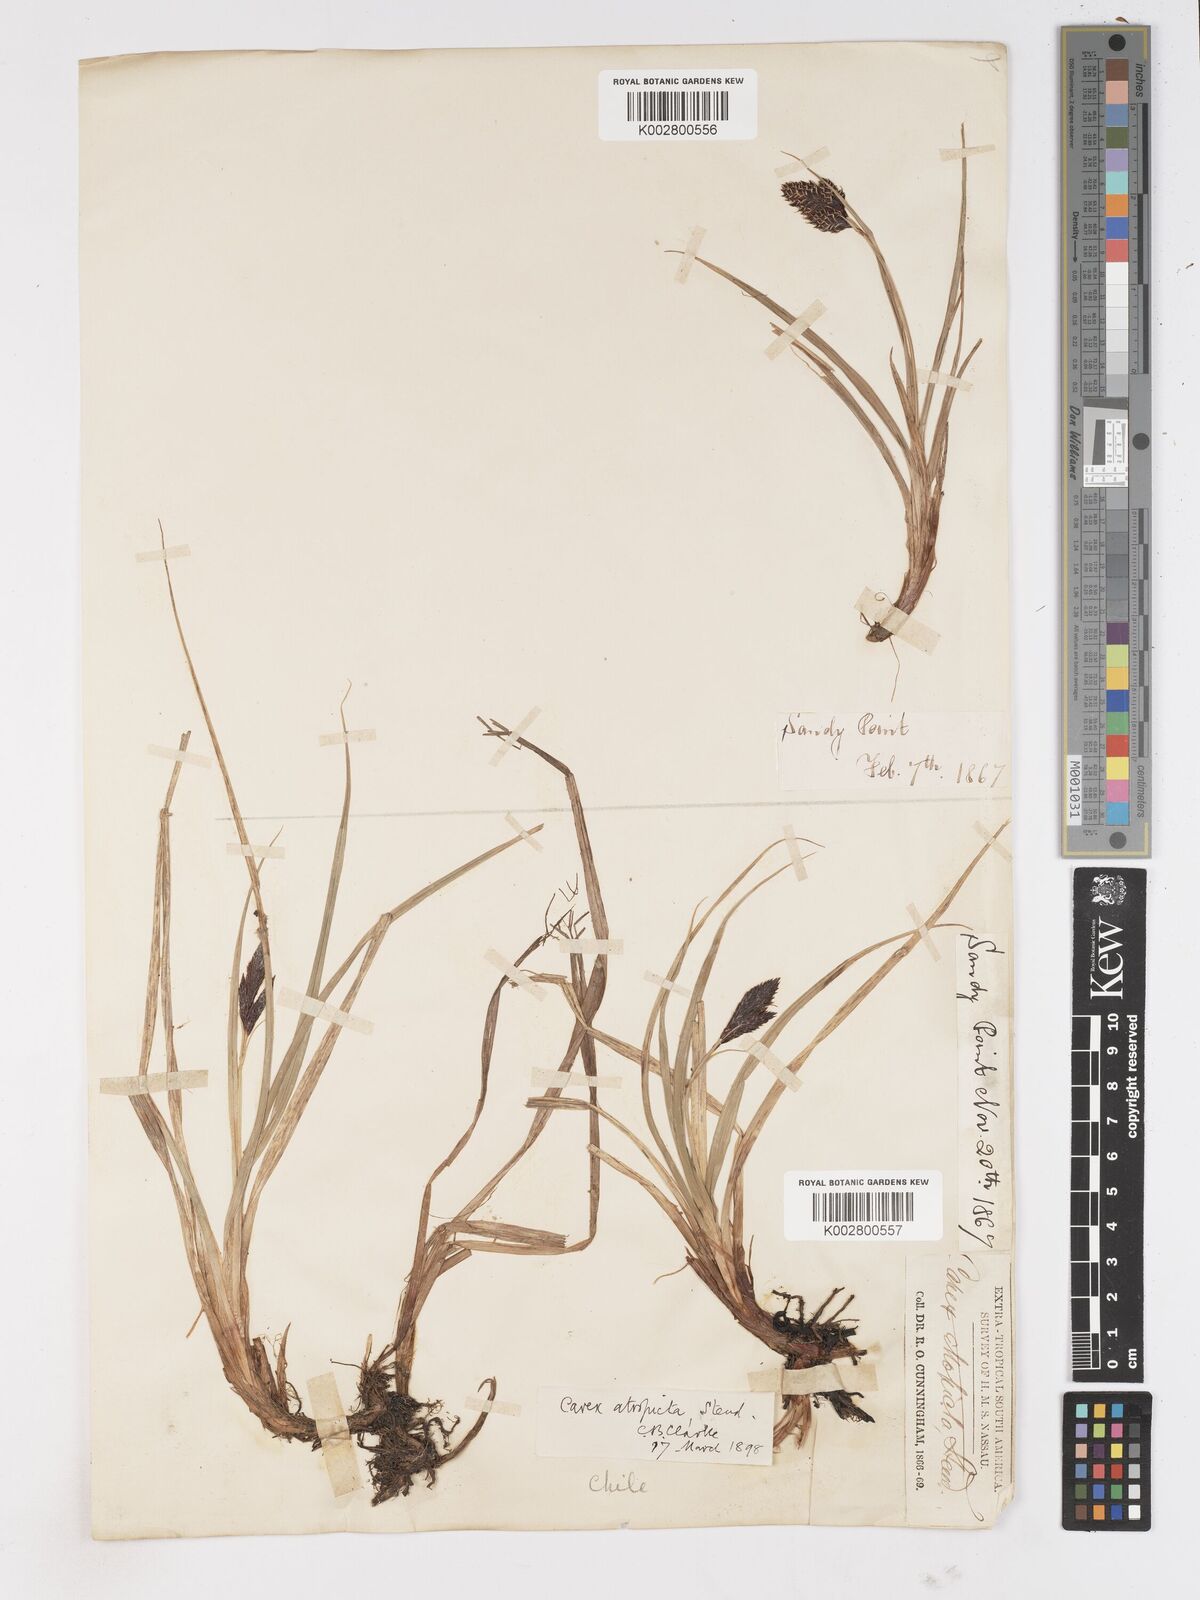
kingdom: Plantae
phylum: Tracheophyta
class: Liliopsida
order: Poales
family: Cyperaceae
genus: Carex
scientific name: Carex atropicta
